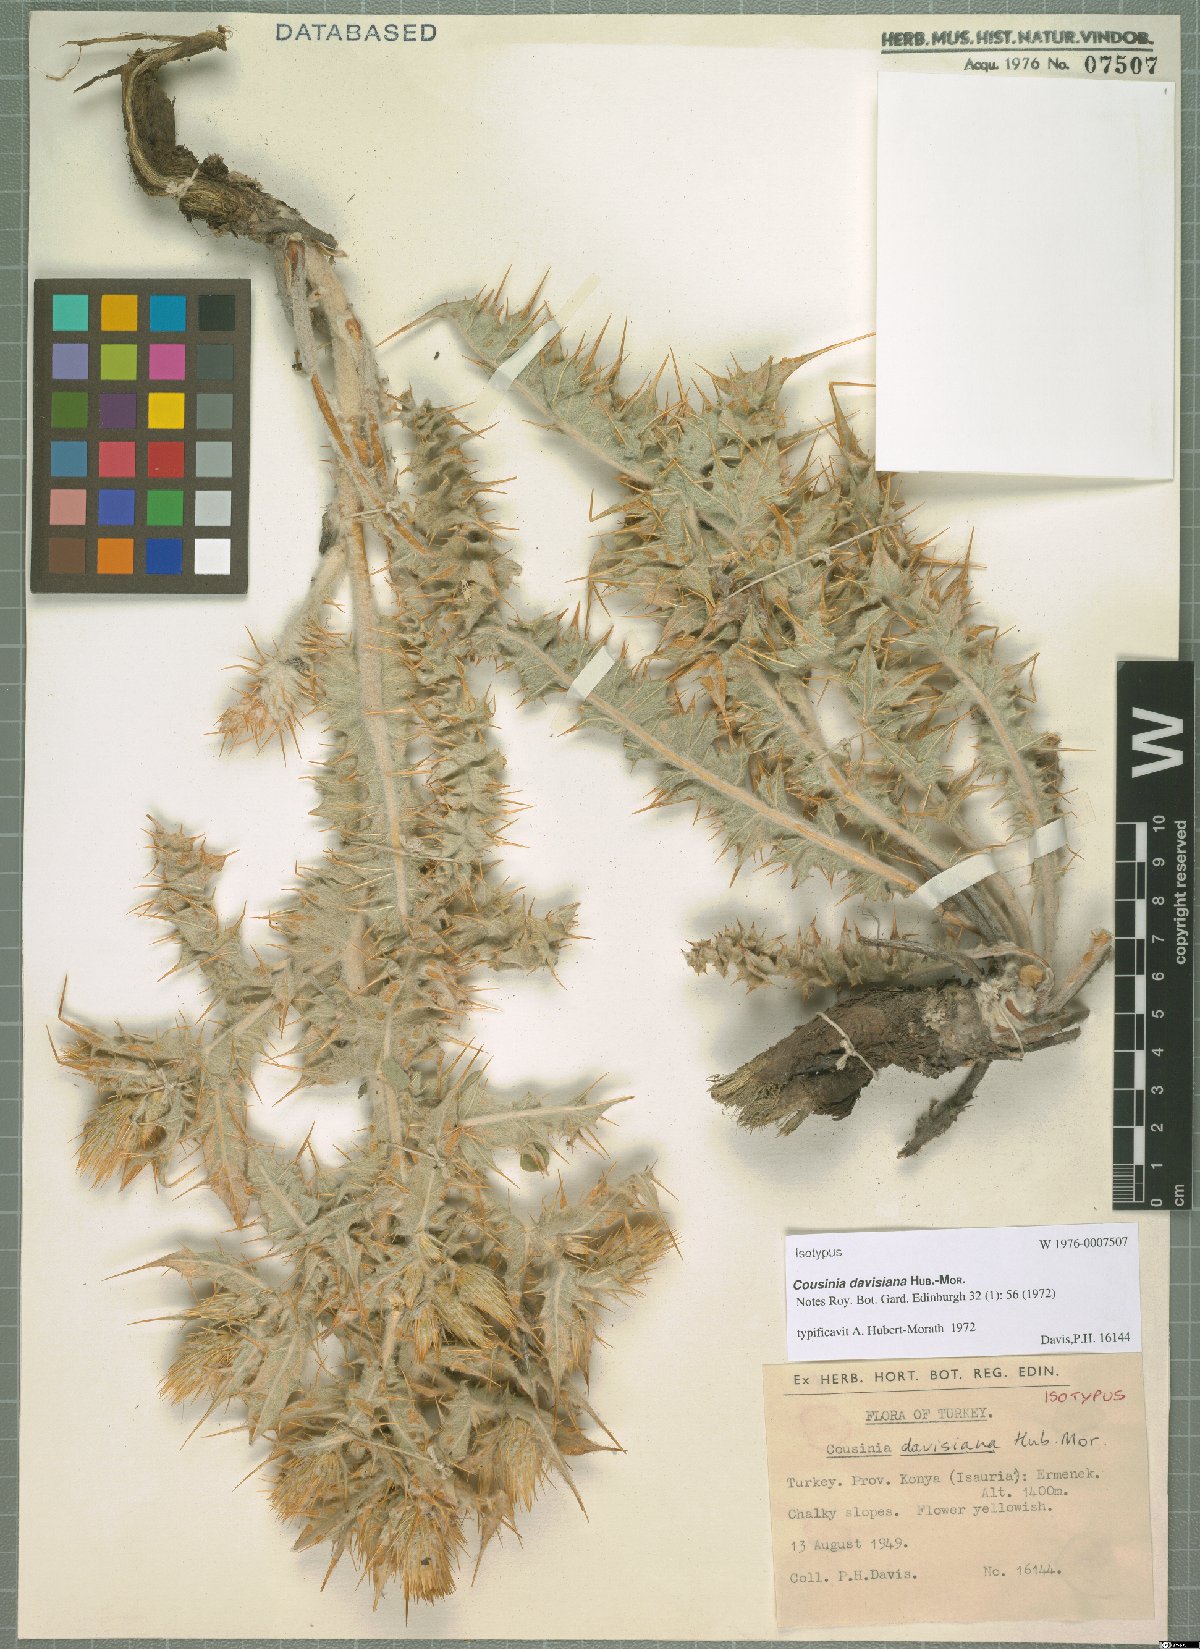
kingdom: Plantae
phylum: Tracheophyta
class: Magnoliopsida
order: Asterales
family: Asteraceae
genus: Cousinia
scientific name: Cousinia davisiana
